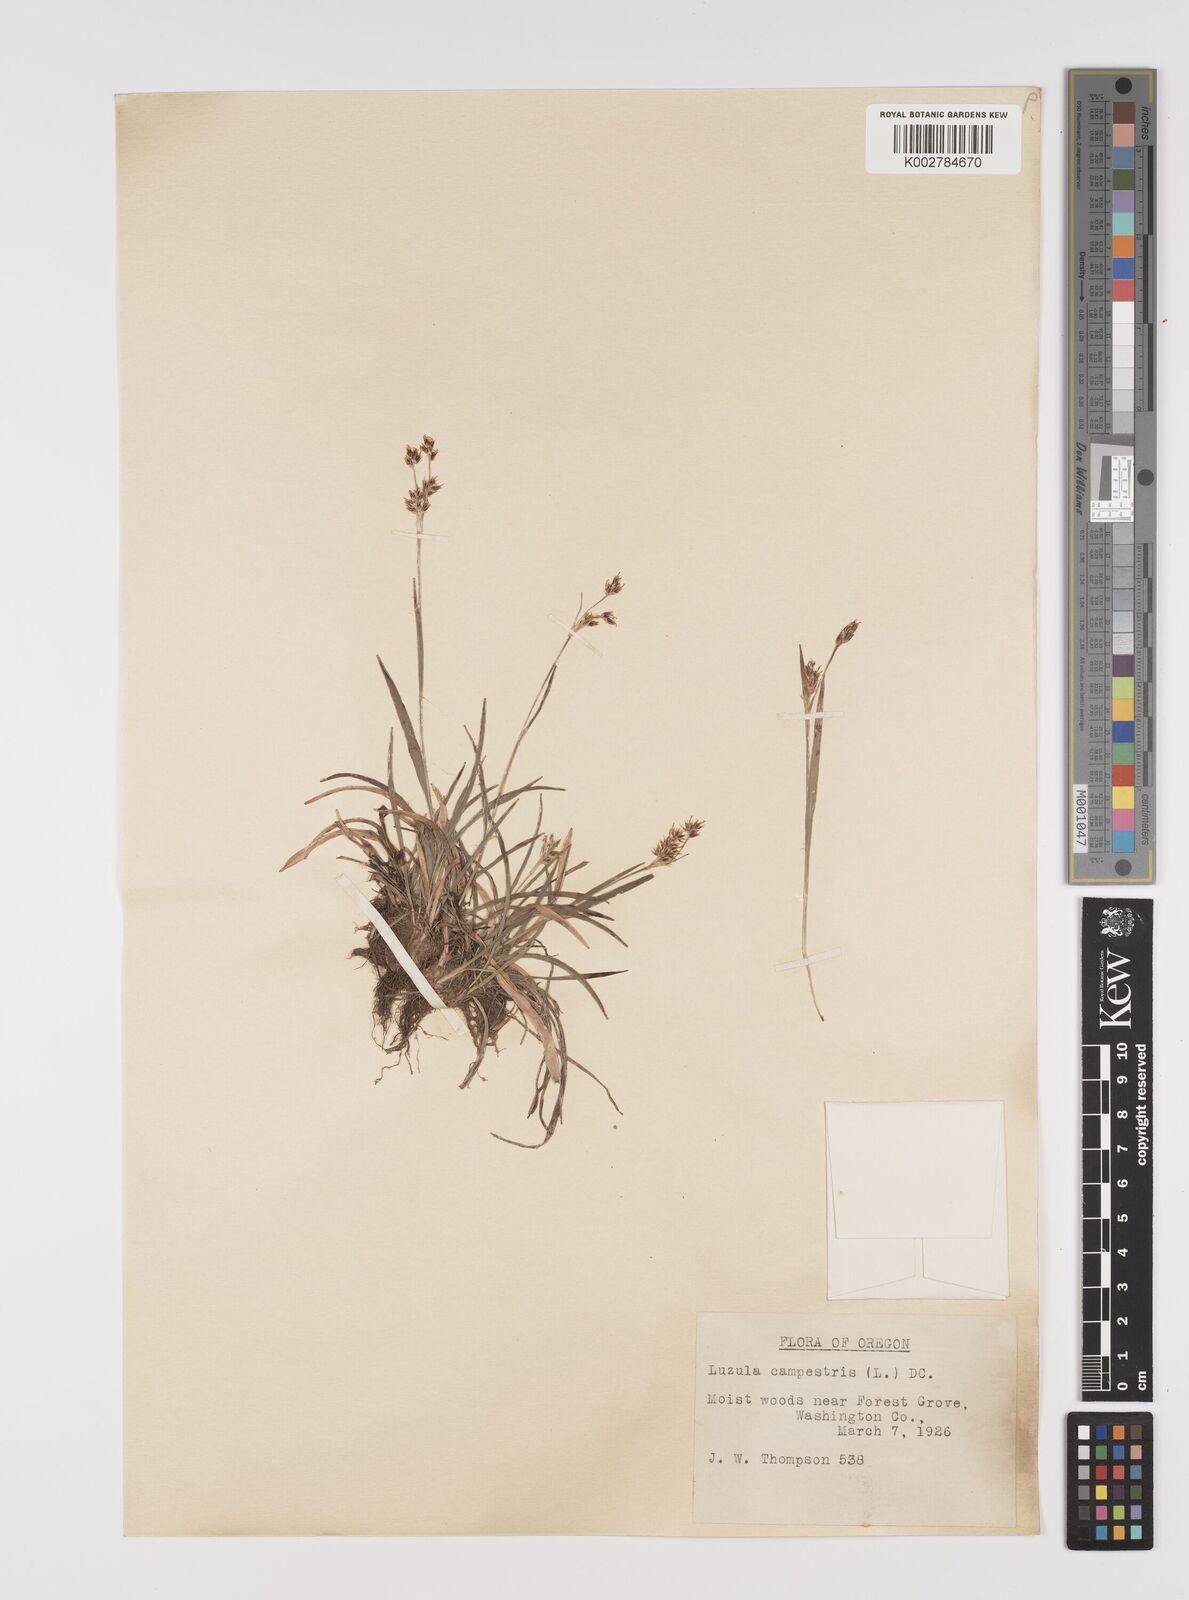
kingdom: Plantae
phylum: Tracheophyta
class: Liliopsida
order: Poales
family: Juncaceae
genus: Luzula
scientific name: Luzula campestris
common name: Field wood-rush
